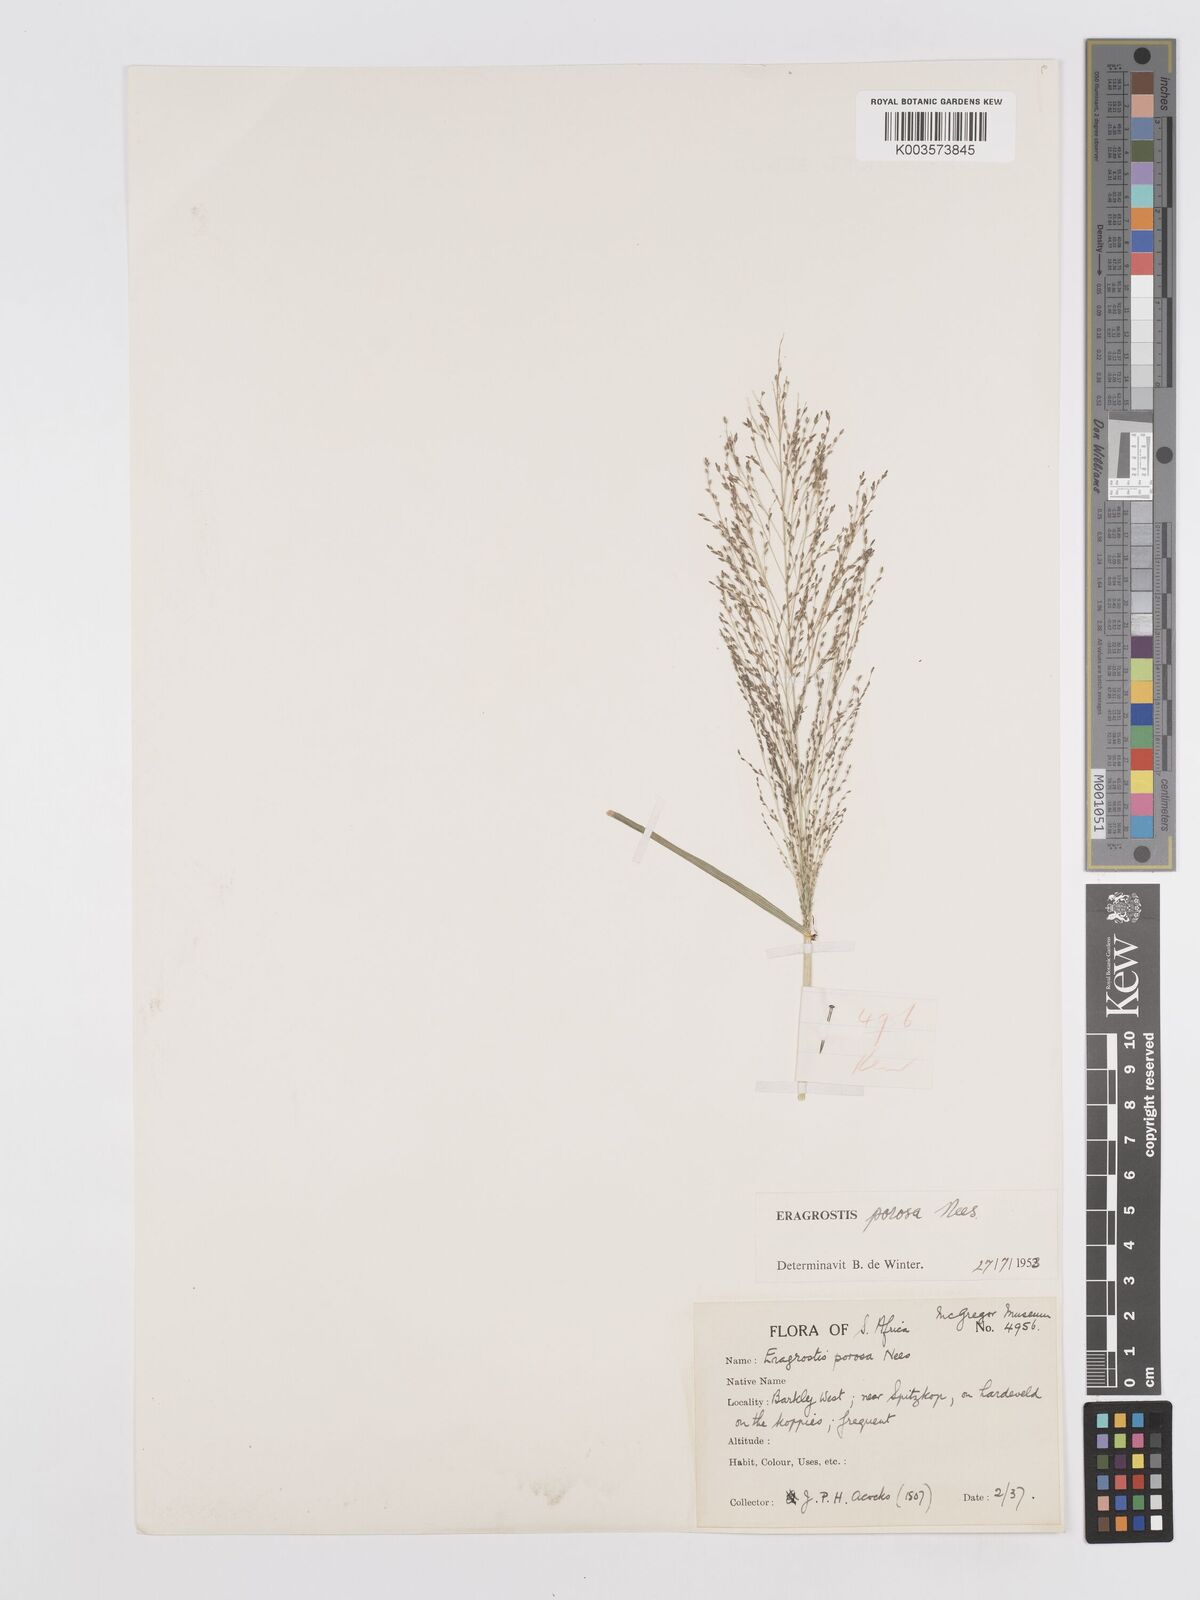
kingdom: Plantae
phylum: Tracheophyta
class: Liliopsida
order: Poales
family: Poaceae
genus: Eragrostis
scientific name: Eragrostis porosa
